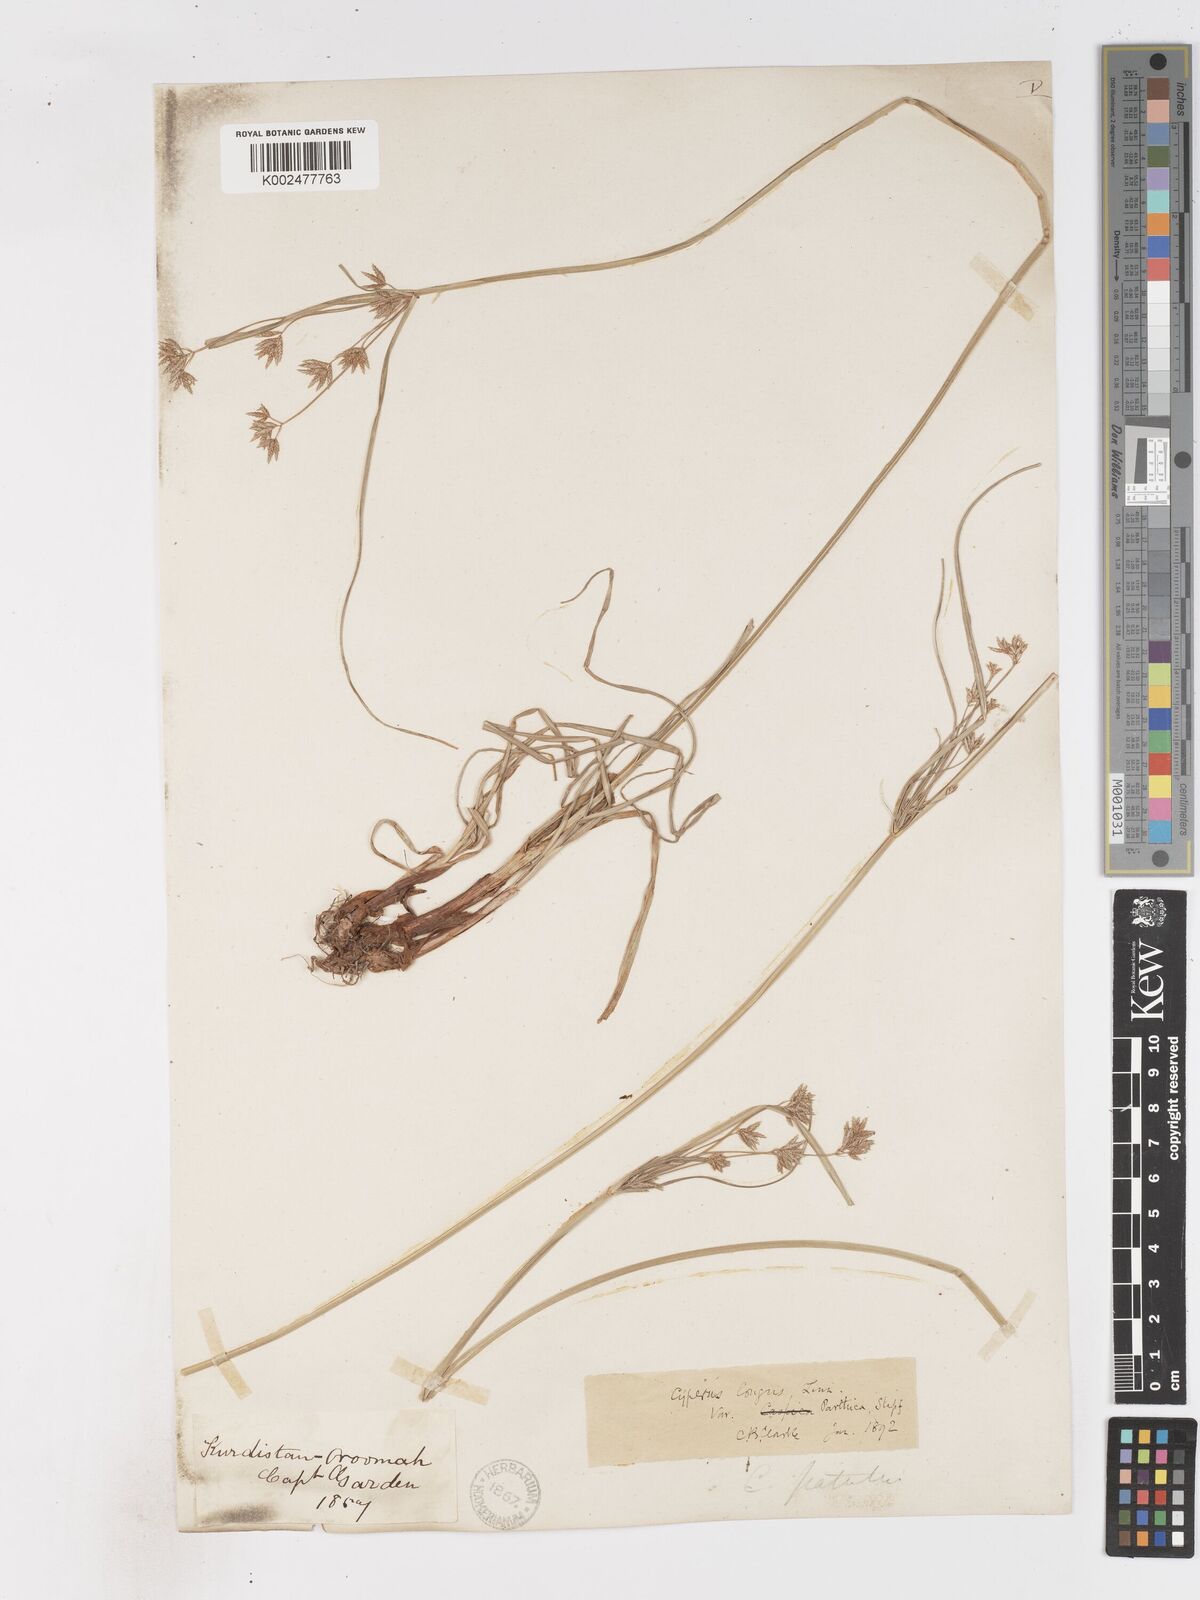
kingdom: Plantae
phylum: Tracheophyta
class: Liliopsida
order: Poales
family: Cyperaceae
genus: Cyperus
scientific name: Cyperus longus
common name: Galingale
